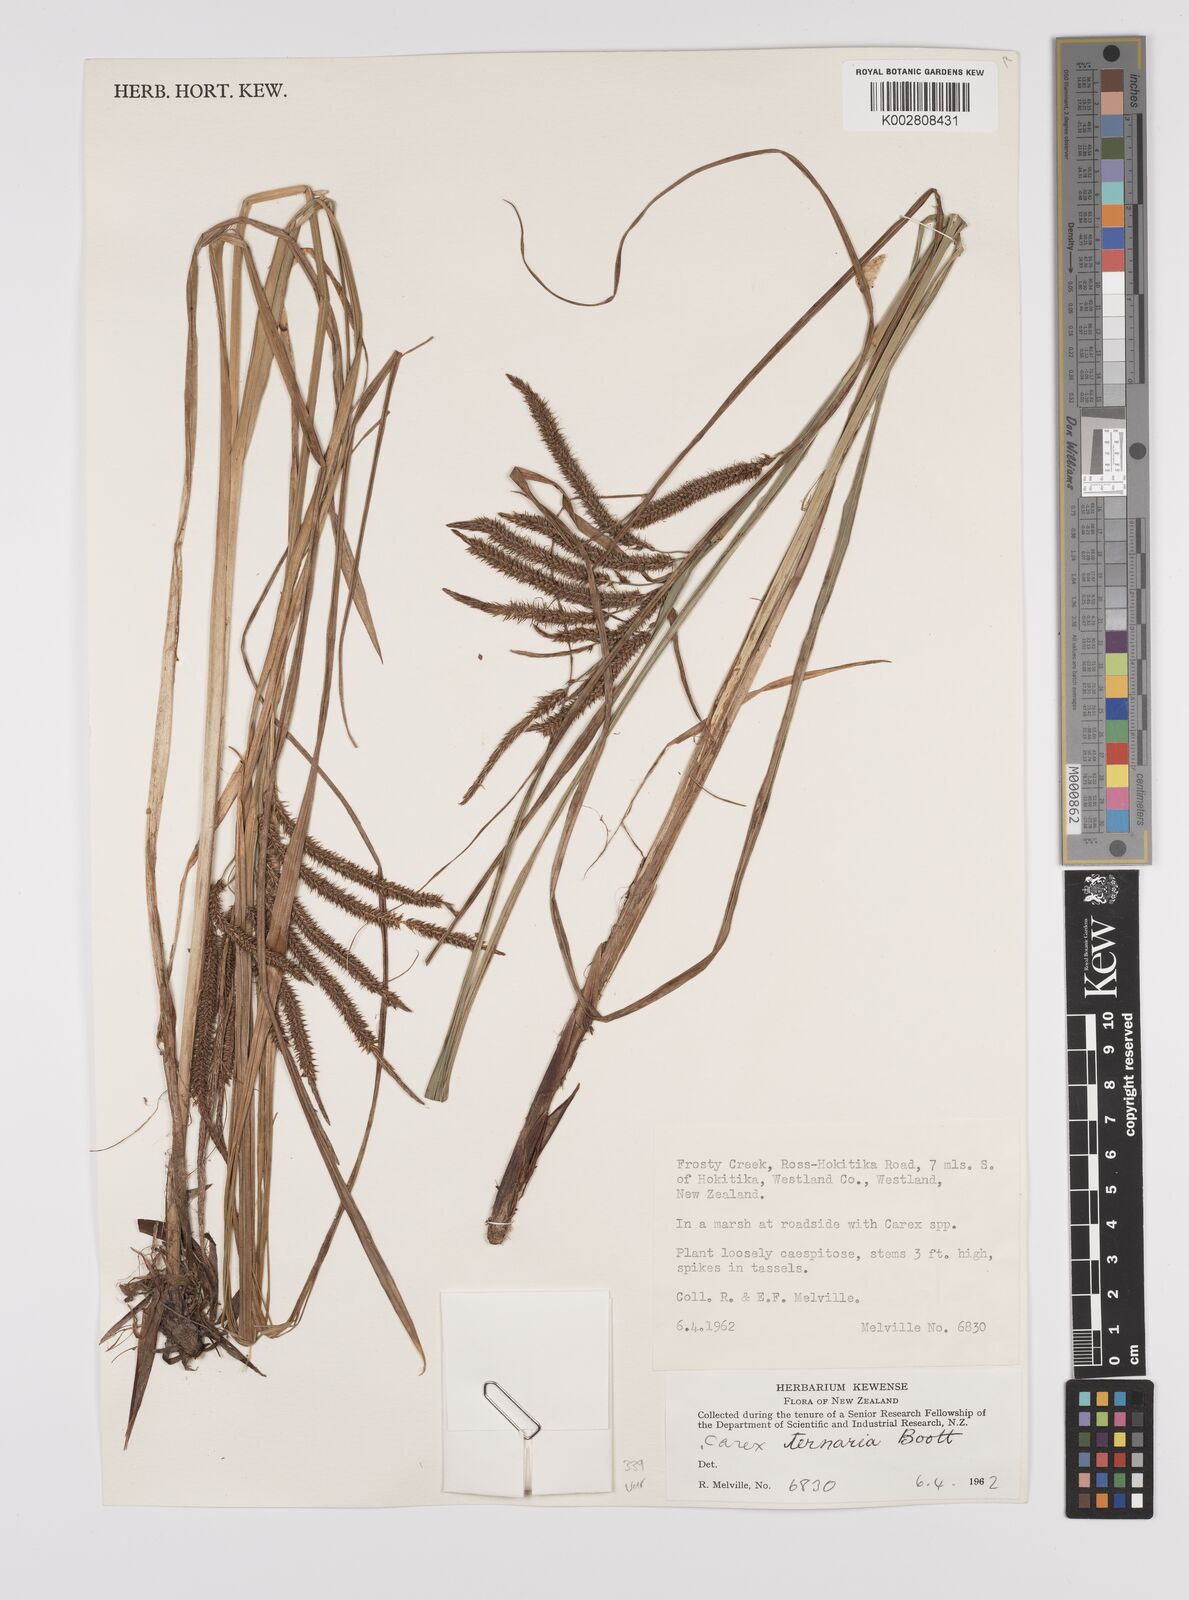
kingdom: Plantae
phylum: Tracheophyta
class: Liliopsida
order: Poales
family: Cyperaceae
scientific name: Cyperaceae
